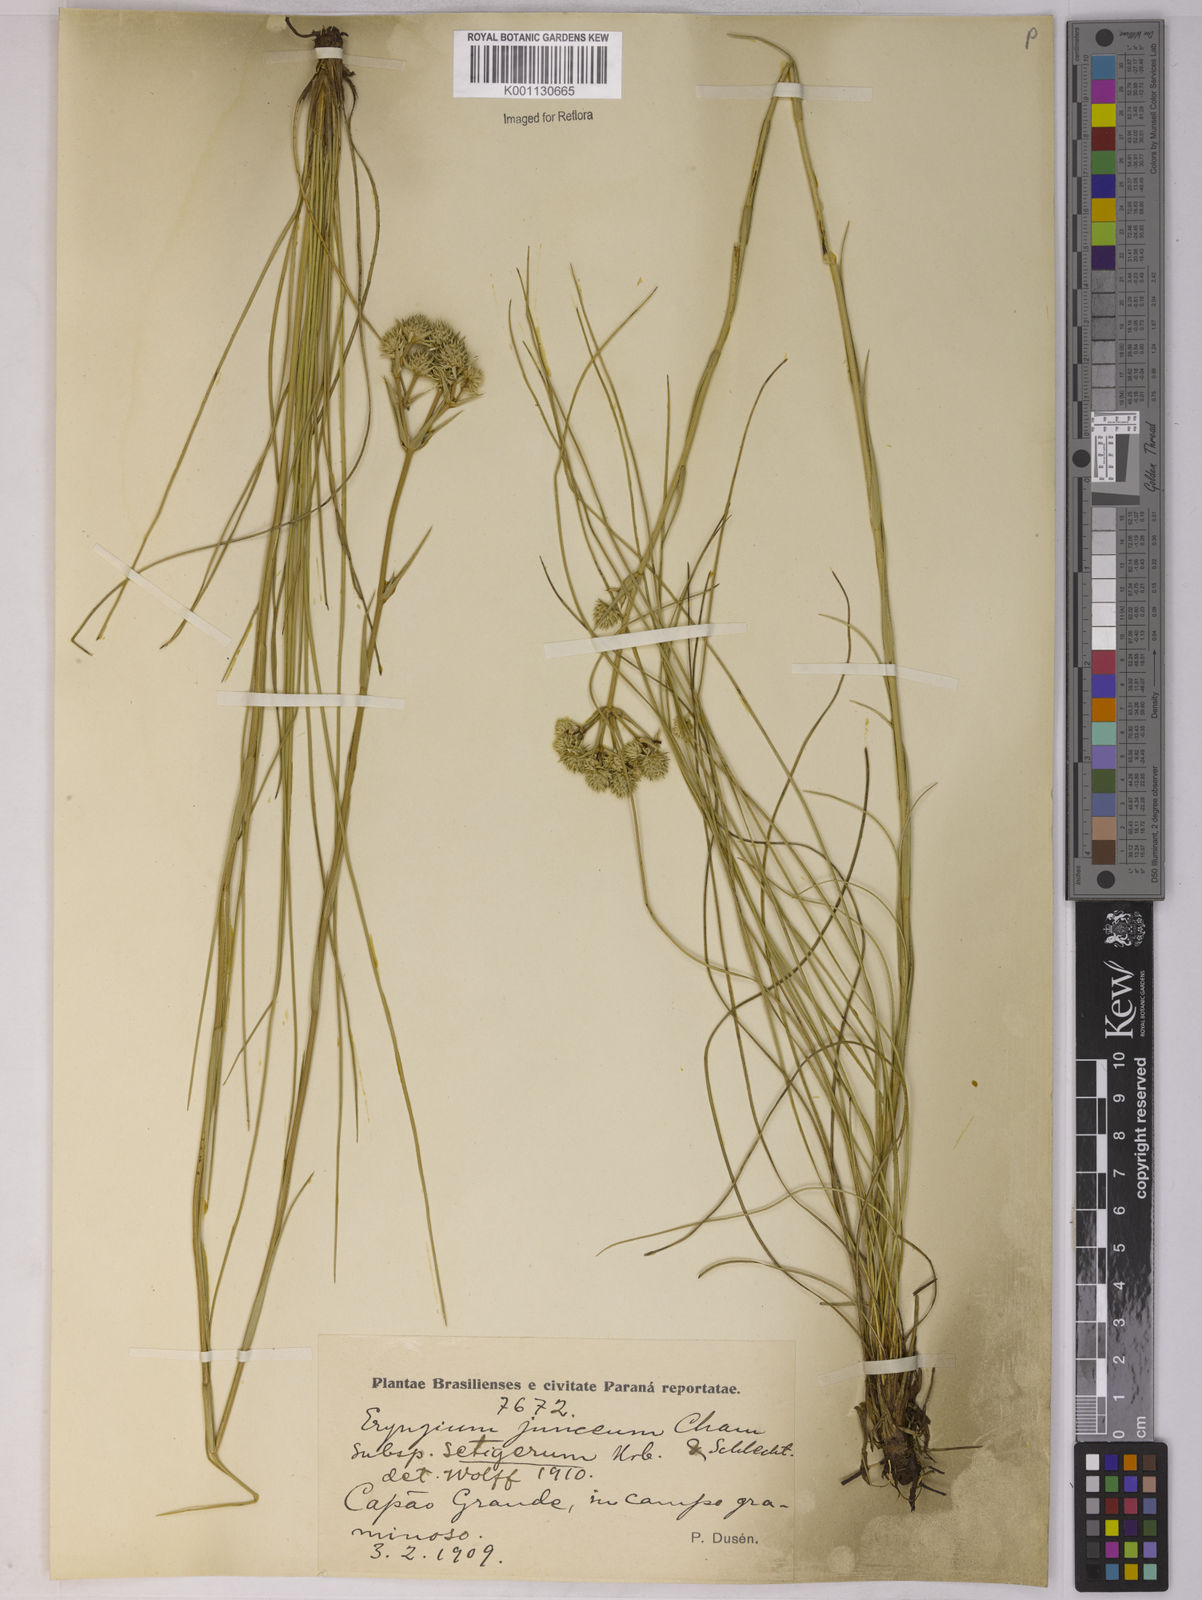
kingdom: Plantae
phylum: Tracheophyta
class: Magnoliopsida
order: Apiales
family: Apiaceae
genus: Eryngium
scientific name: Eryngium junceum
